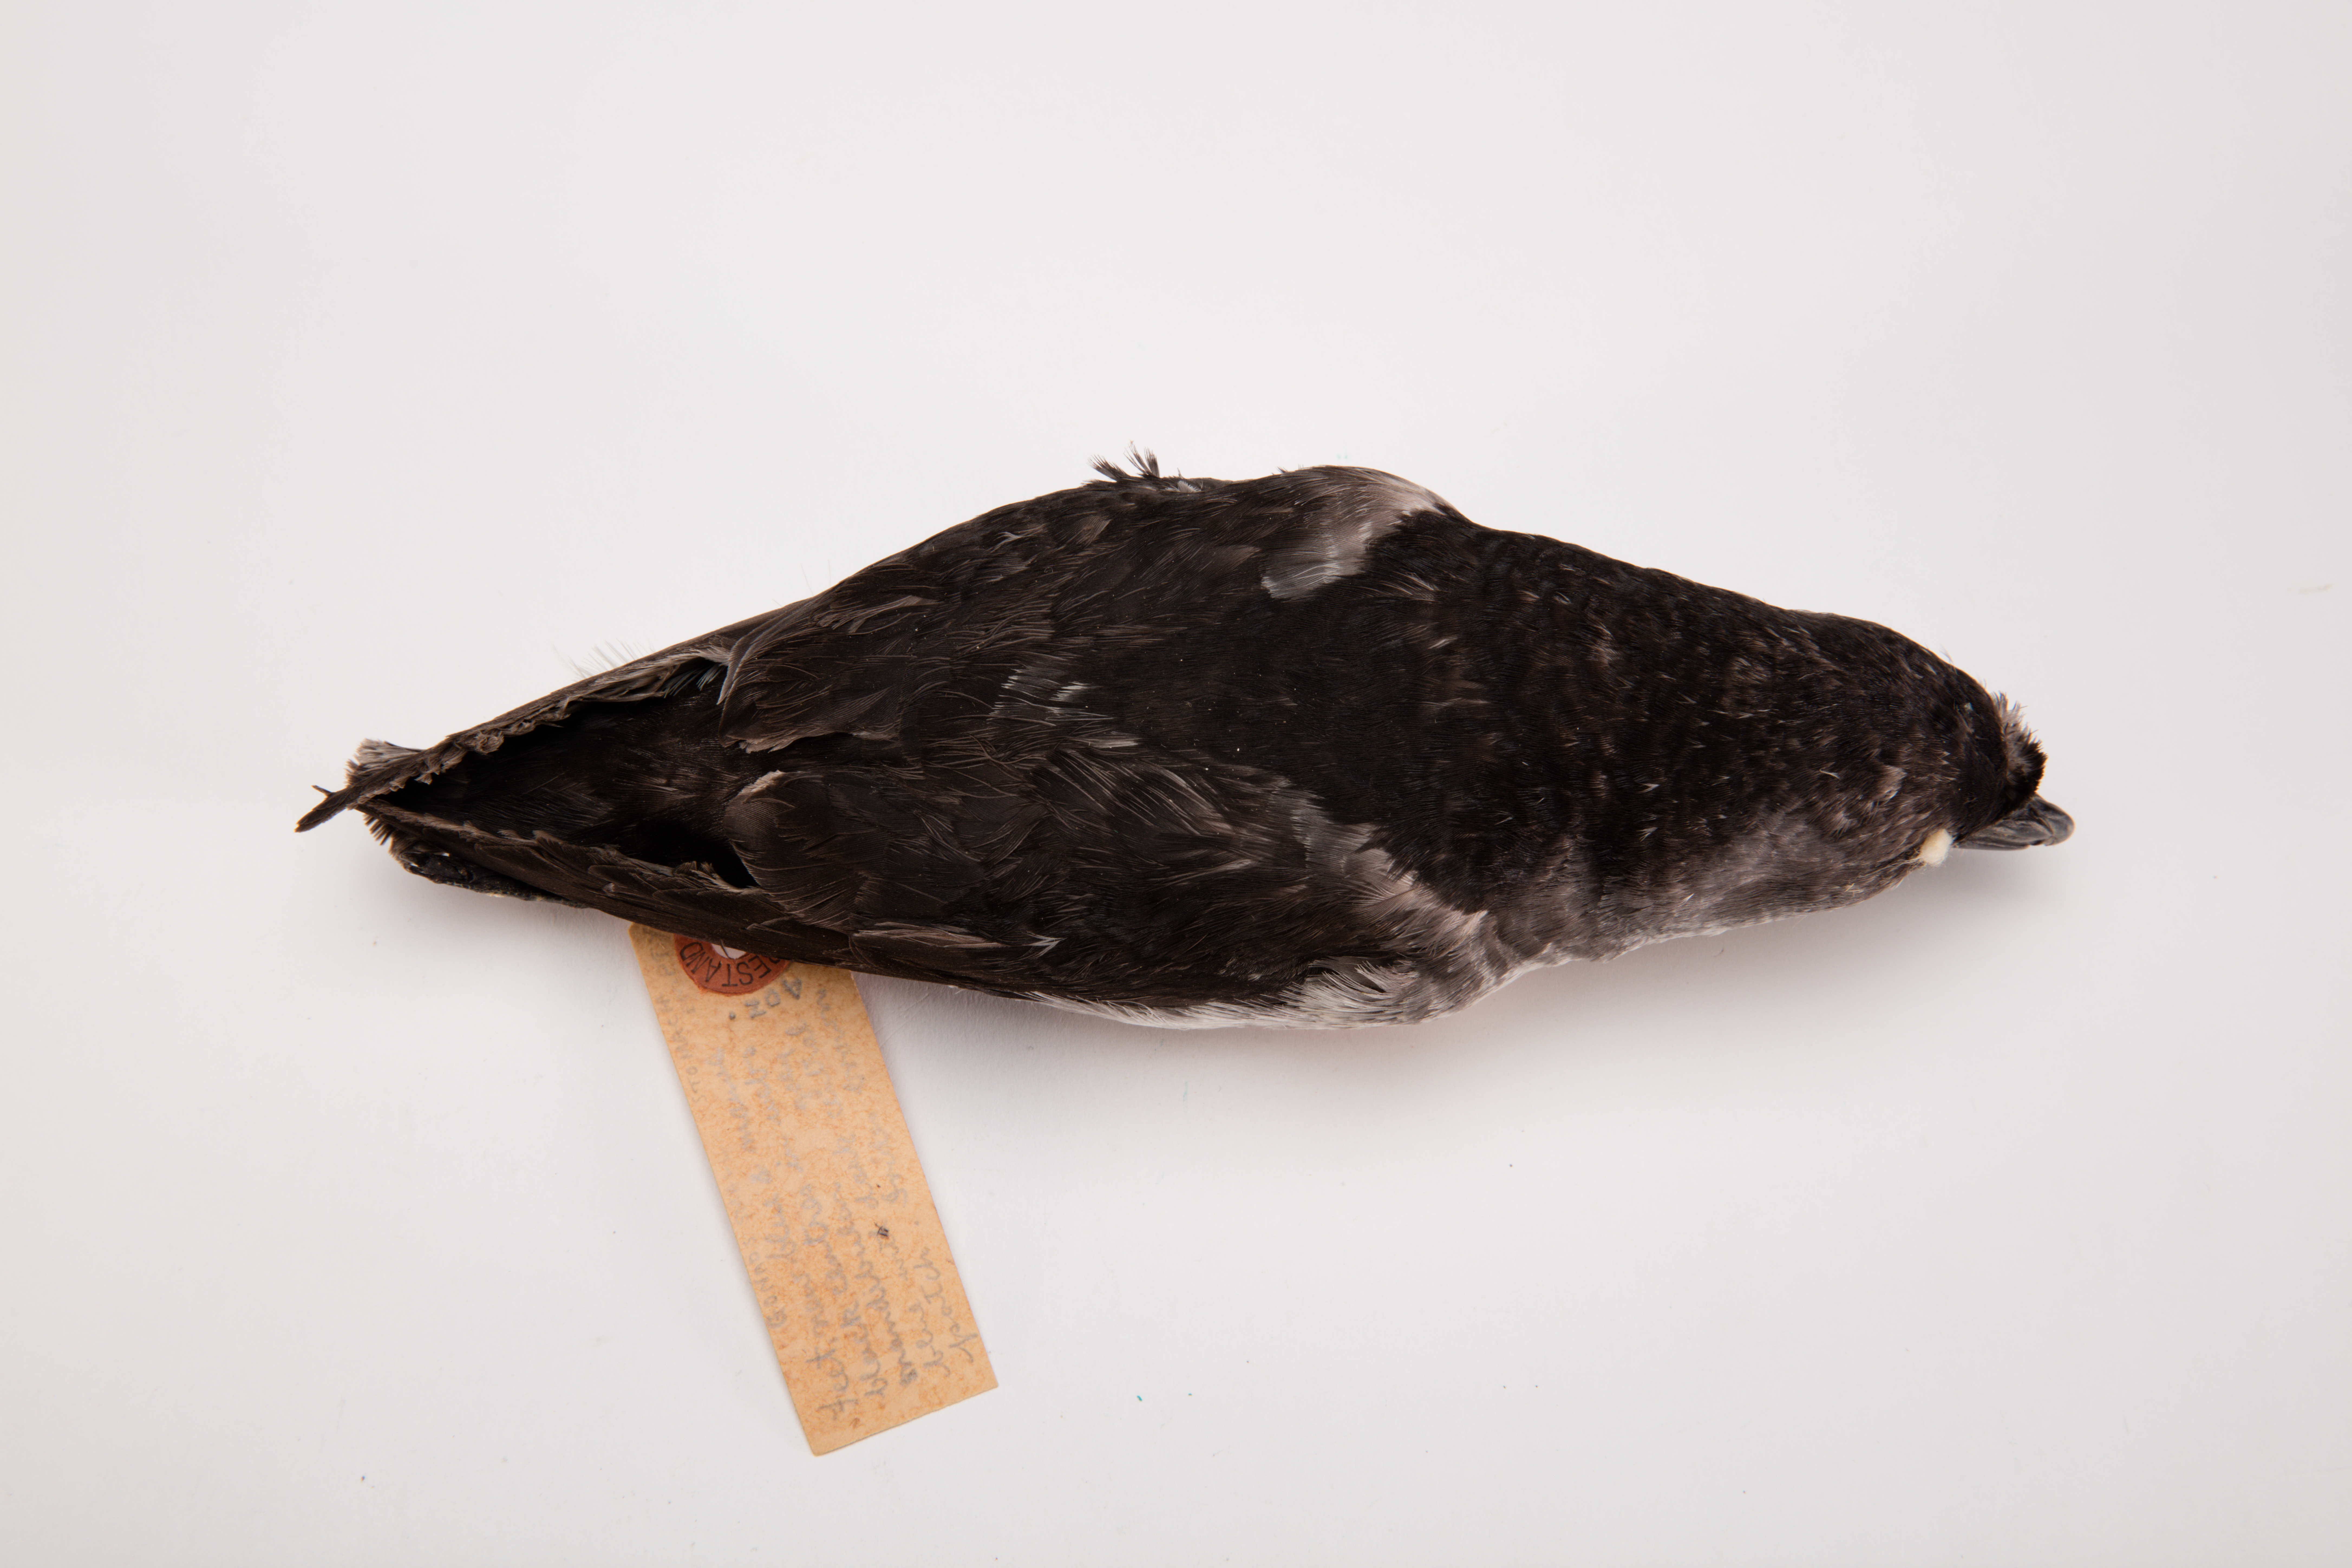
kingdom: Animalia
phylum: Chordata
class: Aves
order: Procellariiformes
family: Pelecanoididae
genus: Pelecanoides
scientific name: Pelecanoides urinatrix
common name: Common diving-petrel
